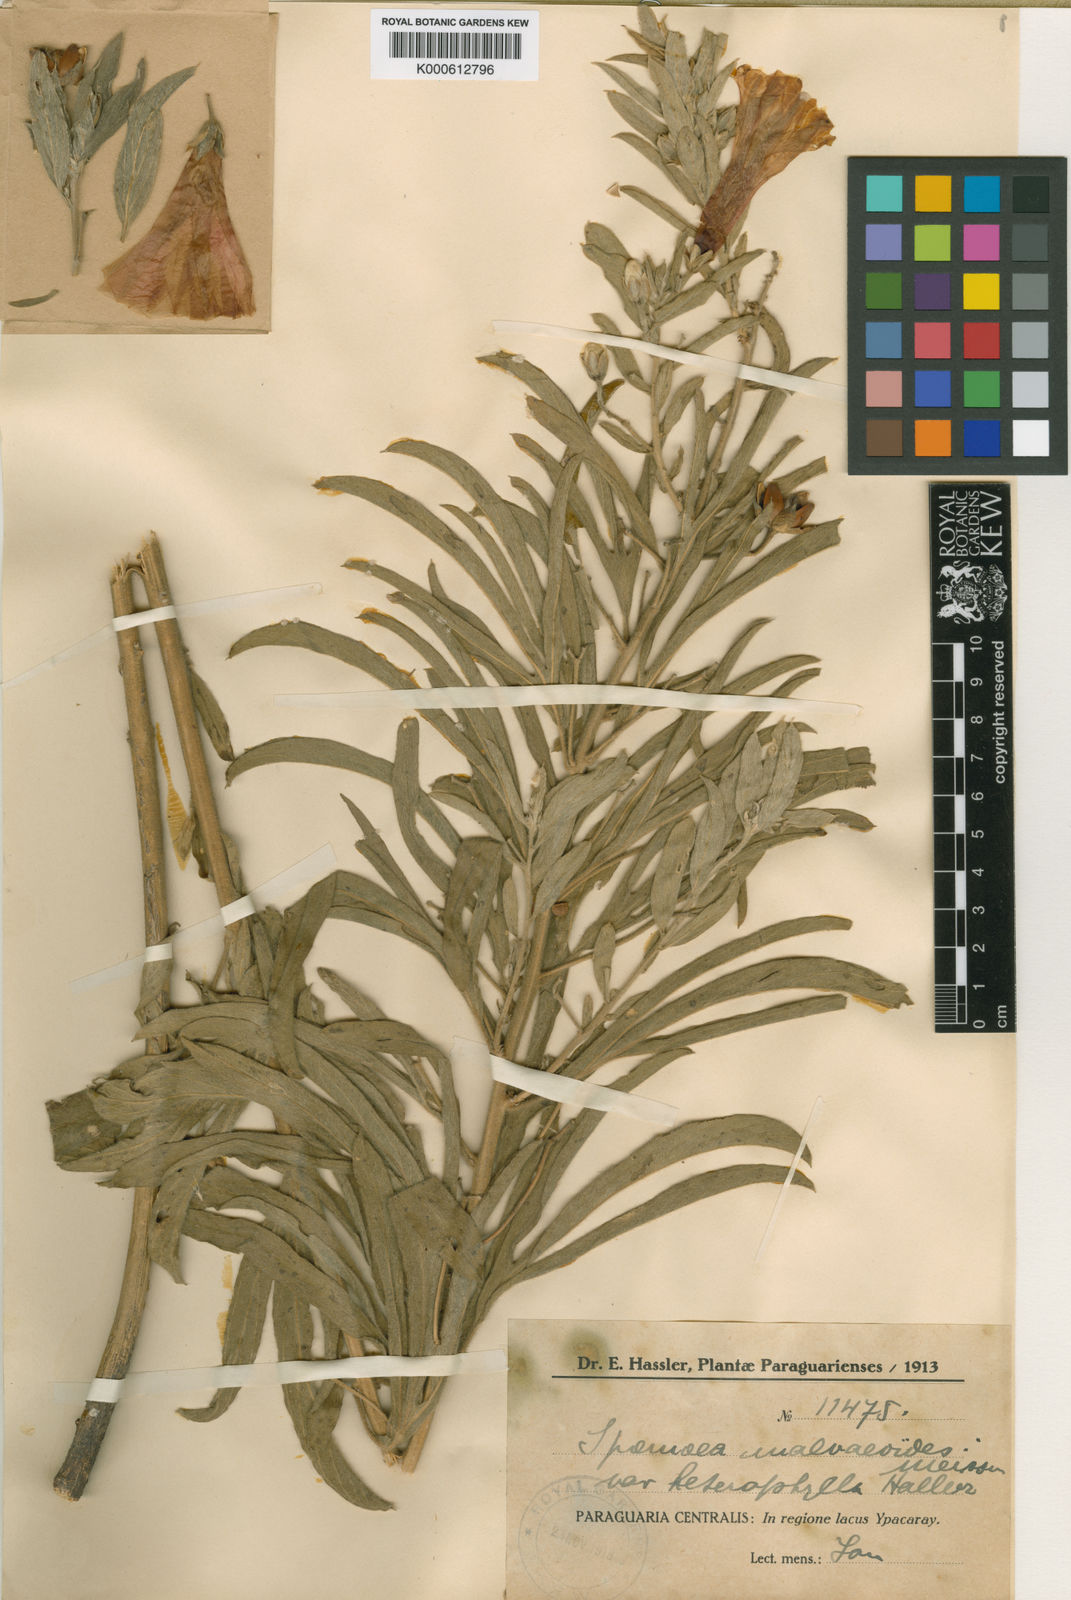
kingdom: Plantae
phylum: Tracheophyta
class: Magnoliopsida
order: Solanales
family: Convolvulaceae
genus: Ipomoea
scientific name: Ipomoea malvaeoides
